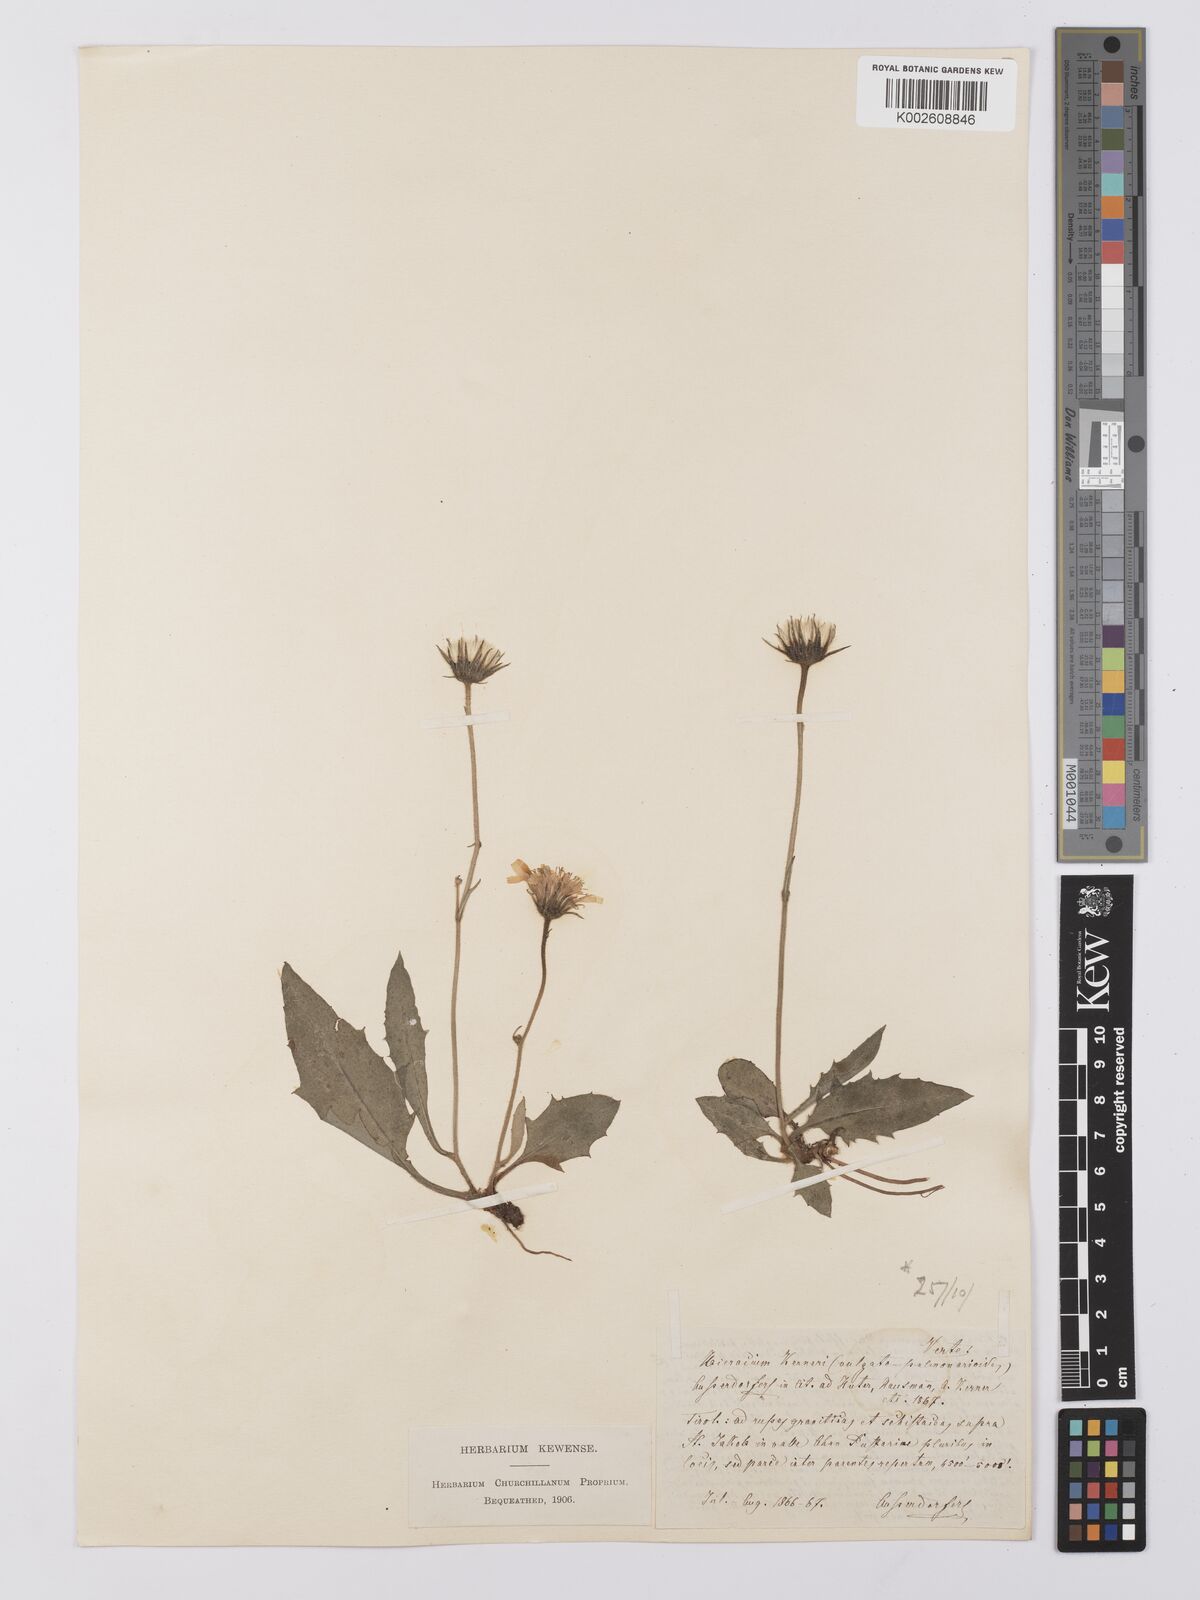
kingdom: Plantae
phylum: Tracheophyta
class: Magnoliopsida
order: Asterales
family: Asteraceae
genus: Hieracium
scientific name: Hieracium balbisianum
